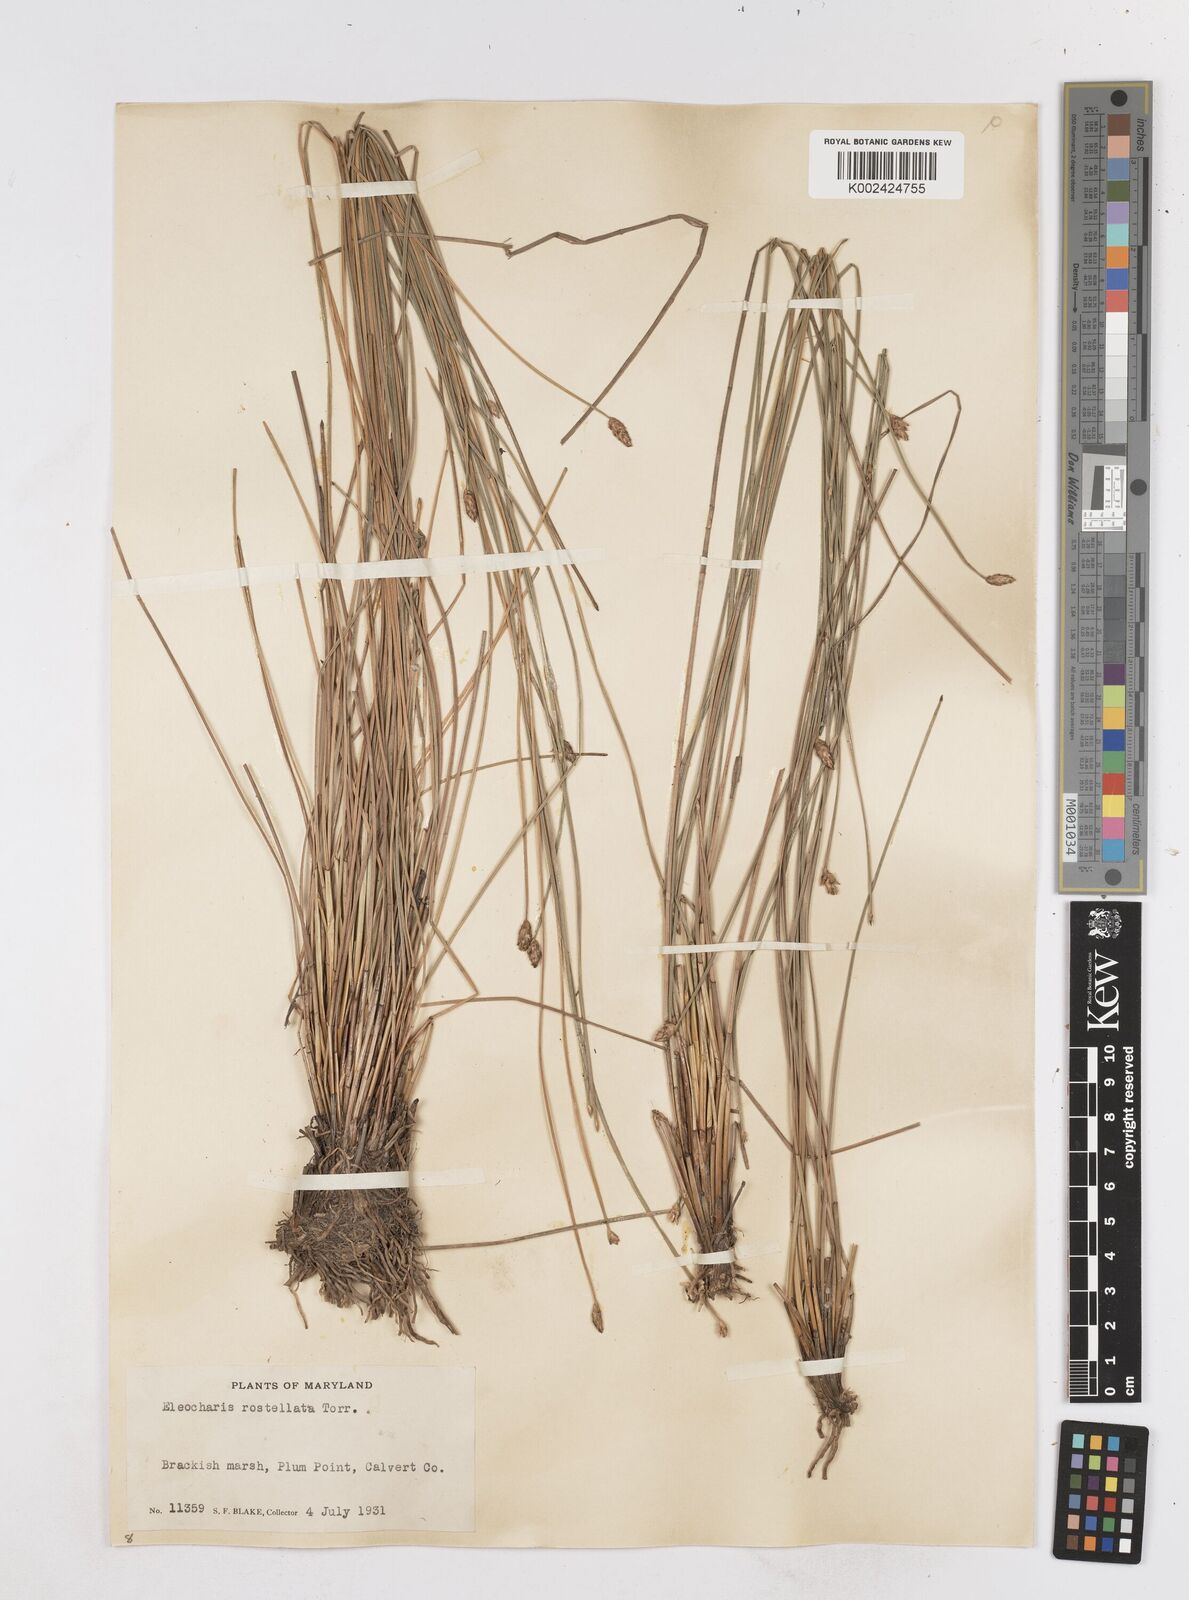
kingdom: Plantae
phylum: Tracheophyta
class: Liliopsida
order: Poales
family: Cyperaceae
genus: Eleocharis
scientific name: Eleocharis rostellata
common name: Walking sedge
